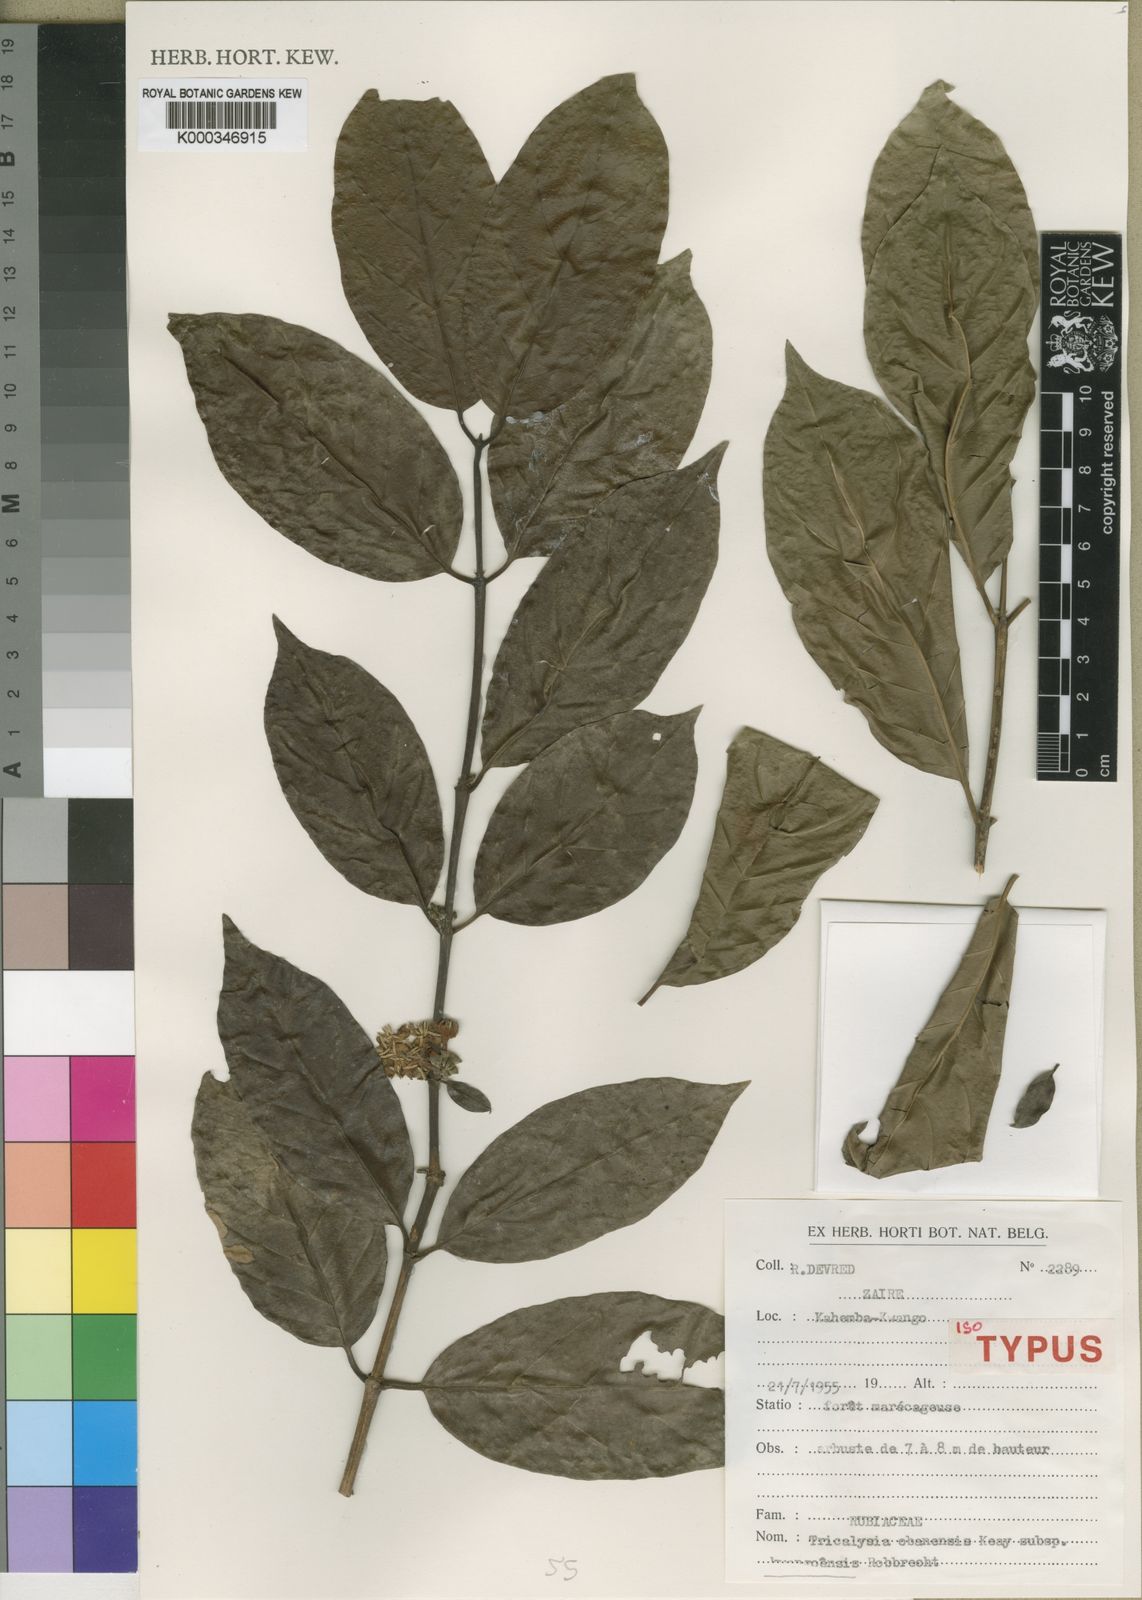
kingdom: Plantae
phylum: Tracheophyta
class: Magnoliopsida
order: Gentianales
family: Rubiaceae
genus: Tricalysia
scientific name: Tricalysia obanensis
